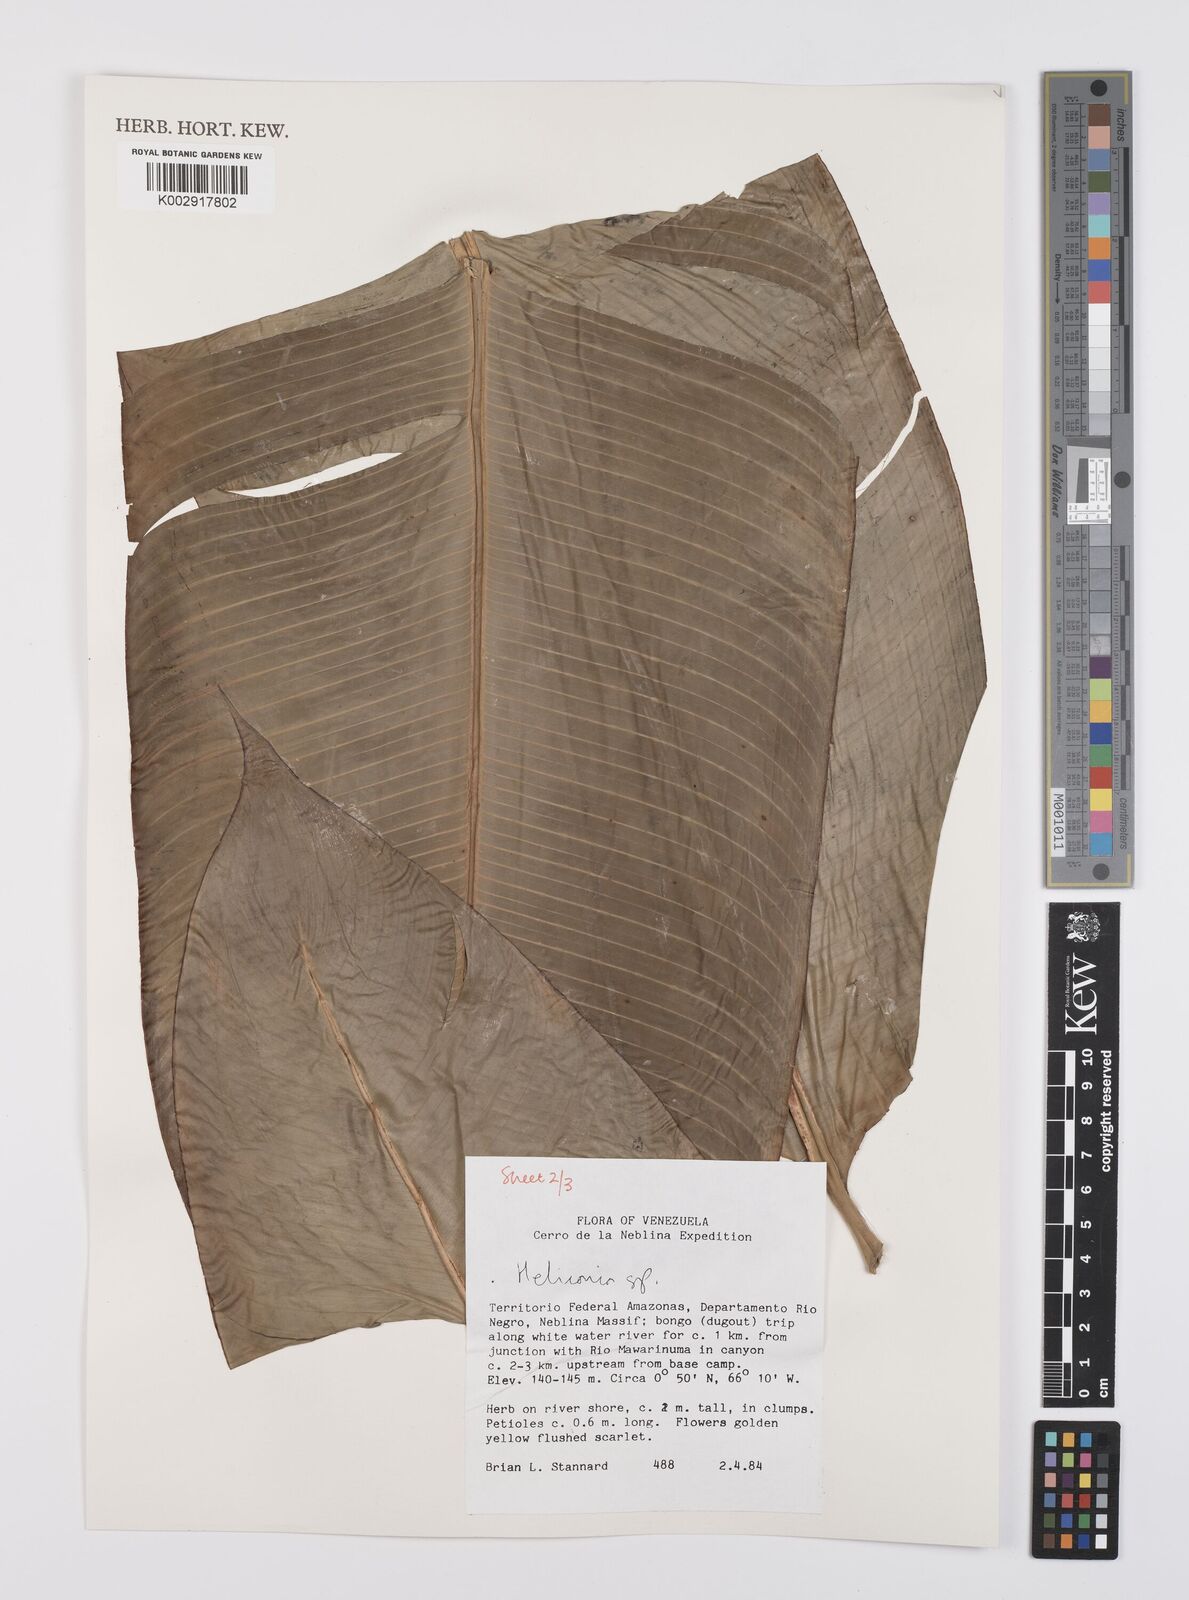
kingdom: Plantae
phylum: Tracheophyta
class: Liliopsida
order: Zingiberales
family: Heliconiaceae
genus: Heliconia
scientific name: Heliconia
